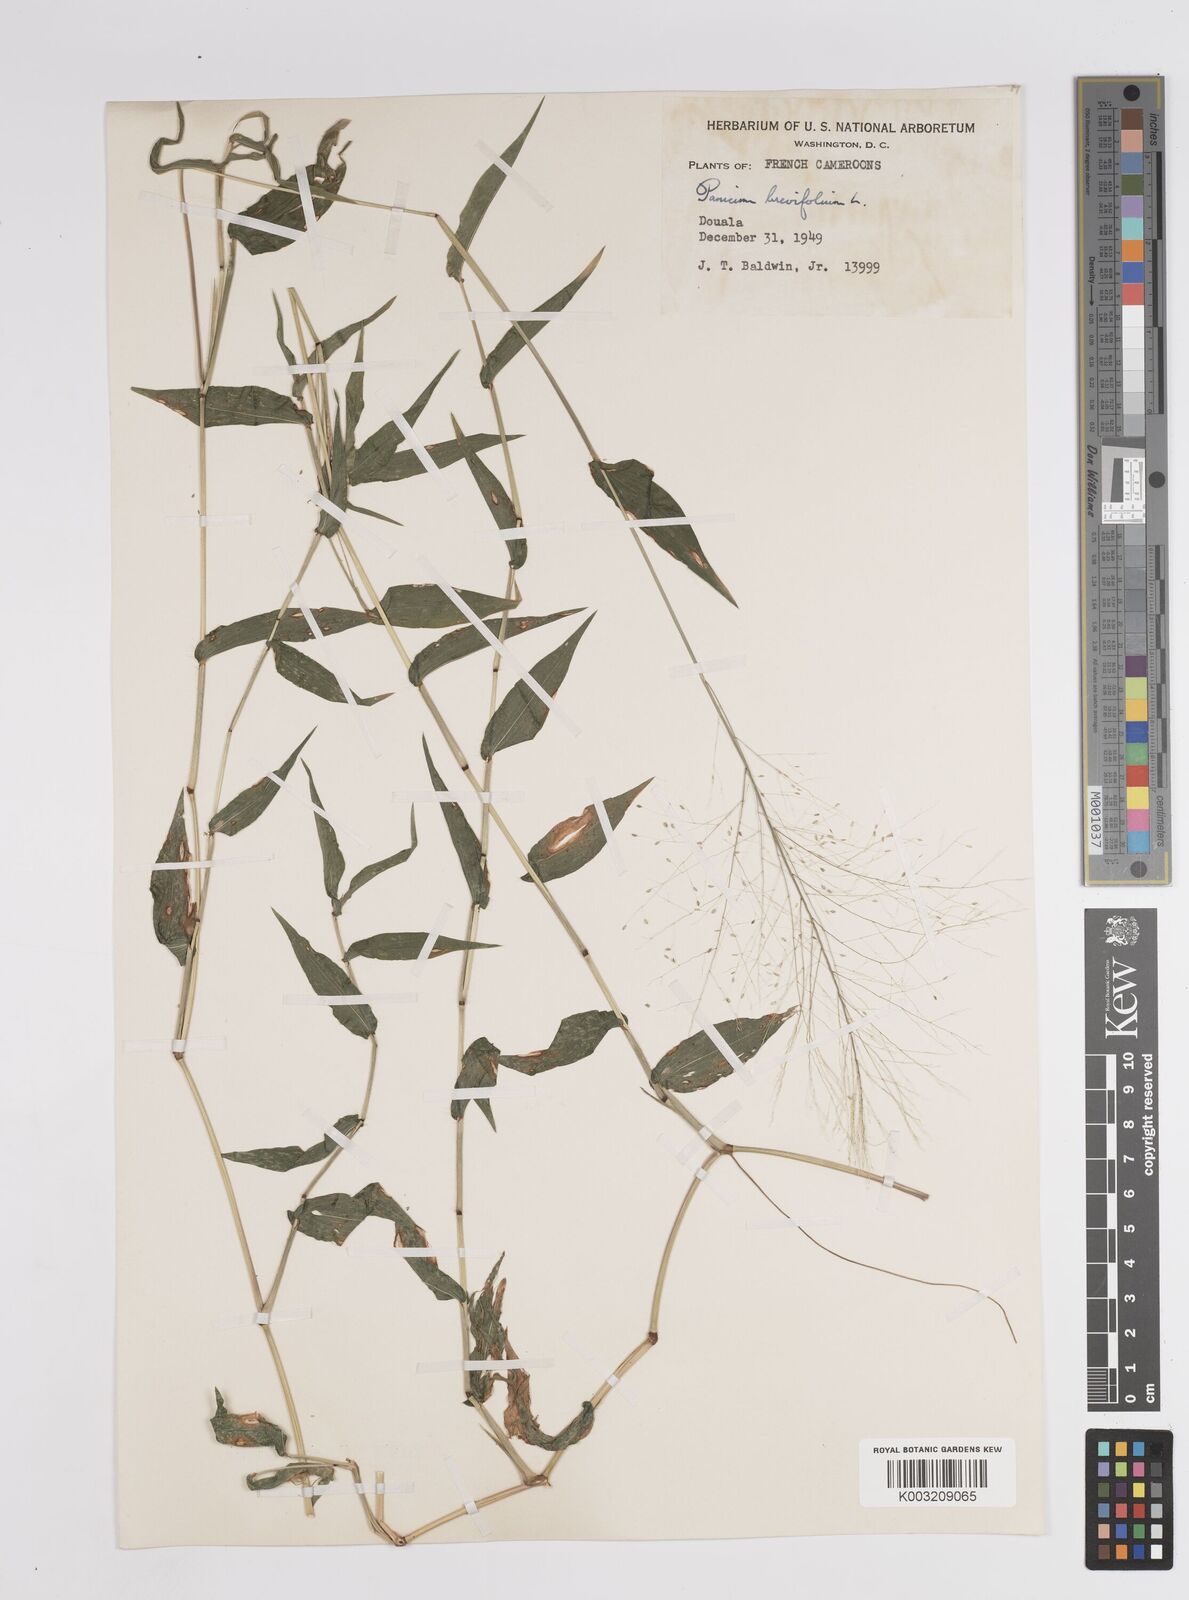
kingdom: Plantae
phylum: Tracheophyta
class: Liliopsida
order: Poales
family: Poaceae
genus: Panicum
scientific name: Panicum brevifolium
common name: Shortleaf panic grass
